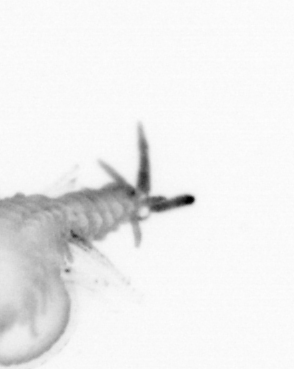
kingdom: Animalia
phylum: Annelida
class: Polychaeta
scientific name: Polychaeta
